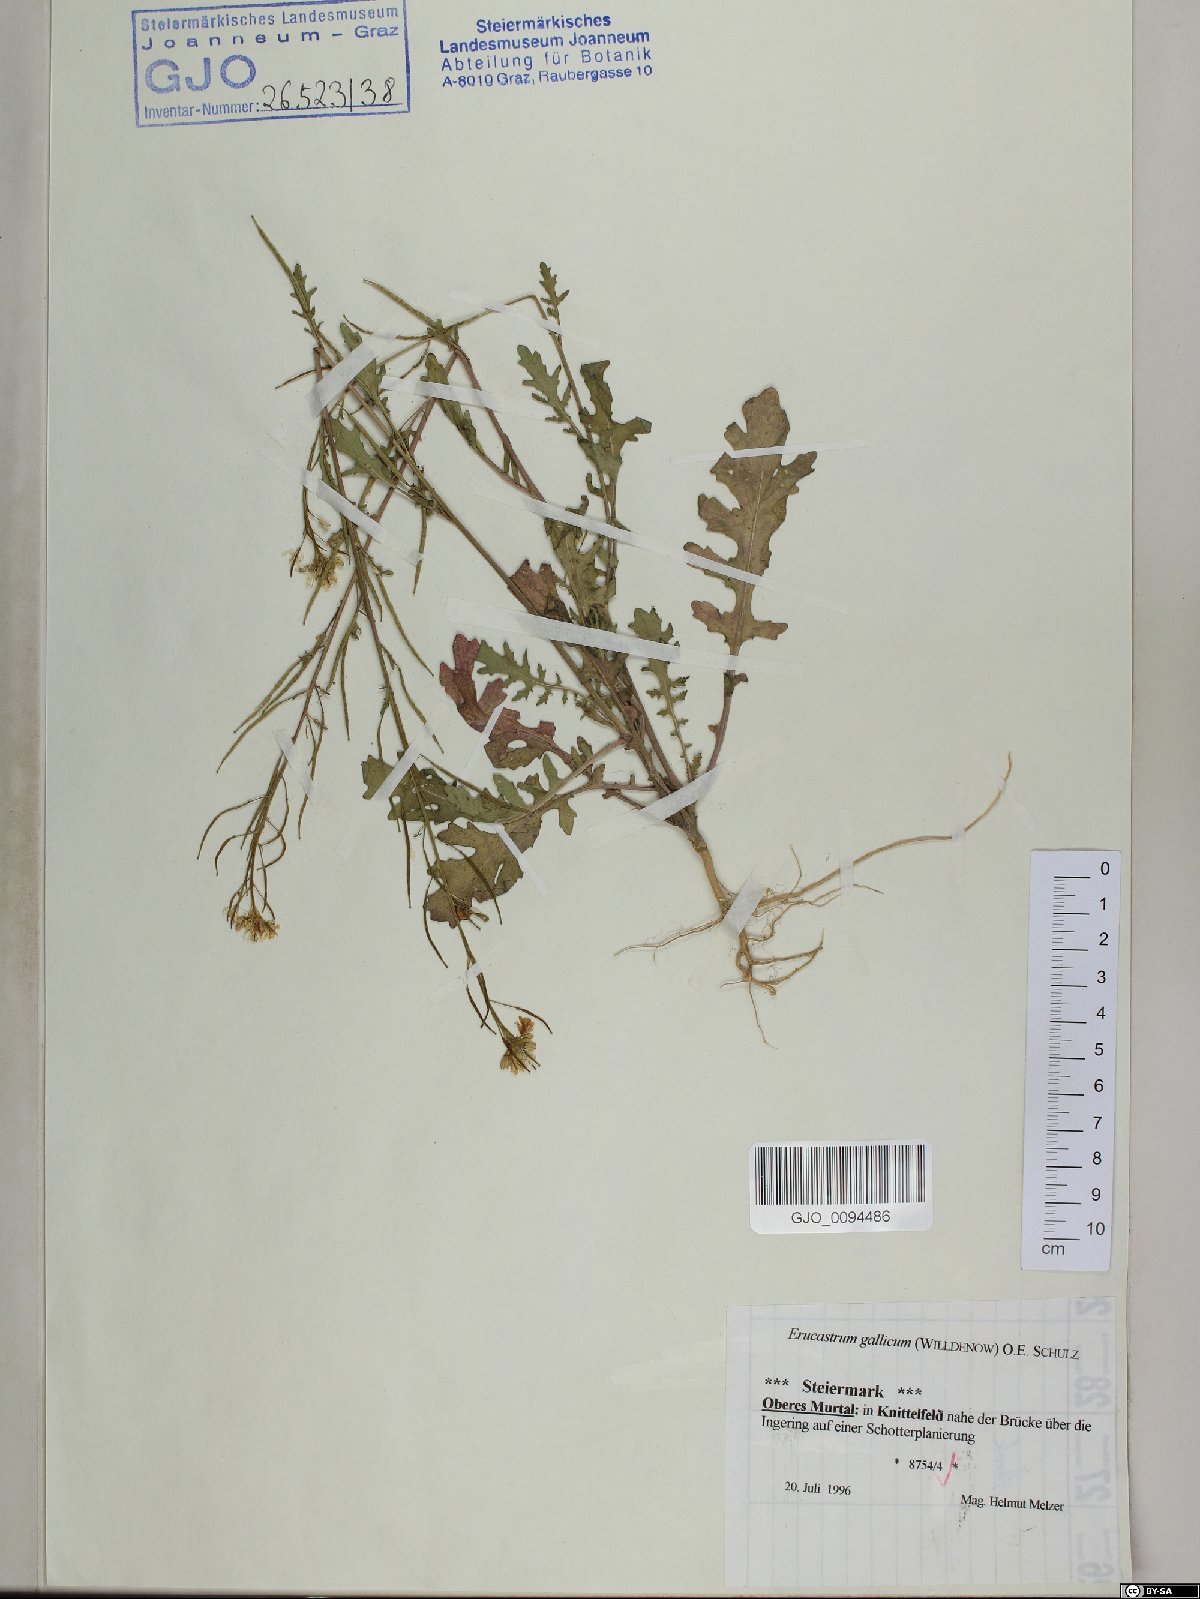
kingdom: Plantae
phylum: Tracheophyta
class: Magnoliopsida
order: Brassicales
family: Brassicaceae
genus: Erucastrum
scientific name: Erucastrum gallicum
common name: Hairy rocket
